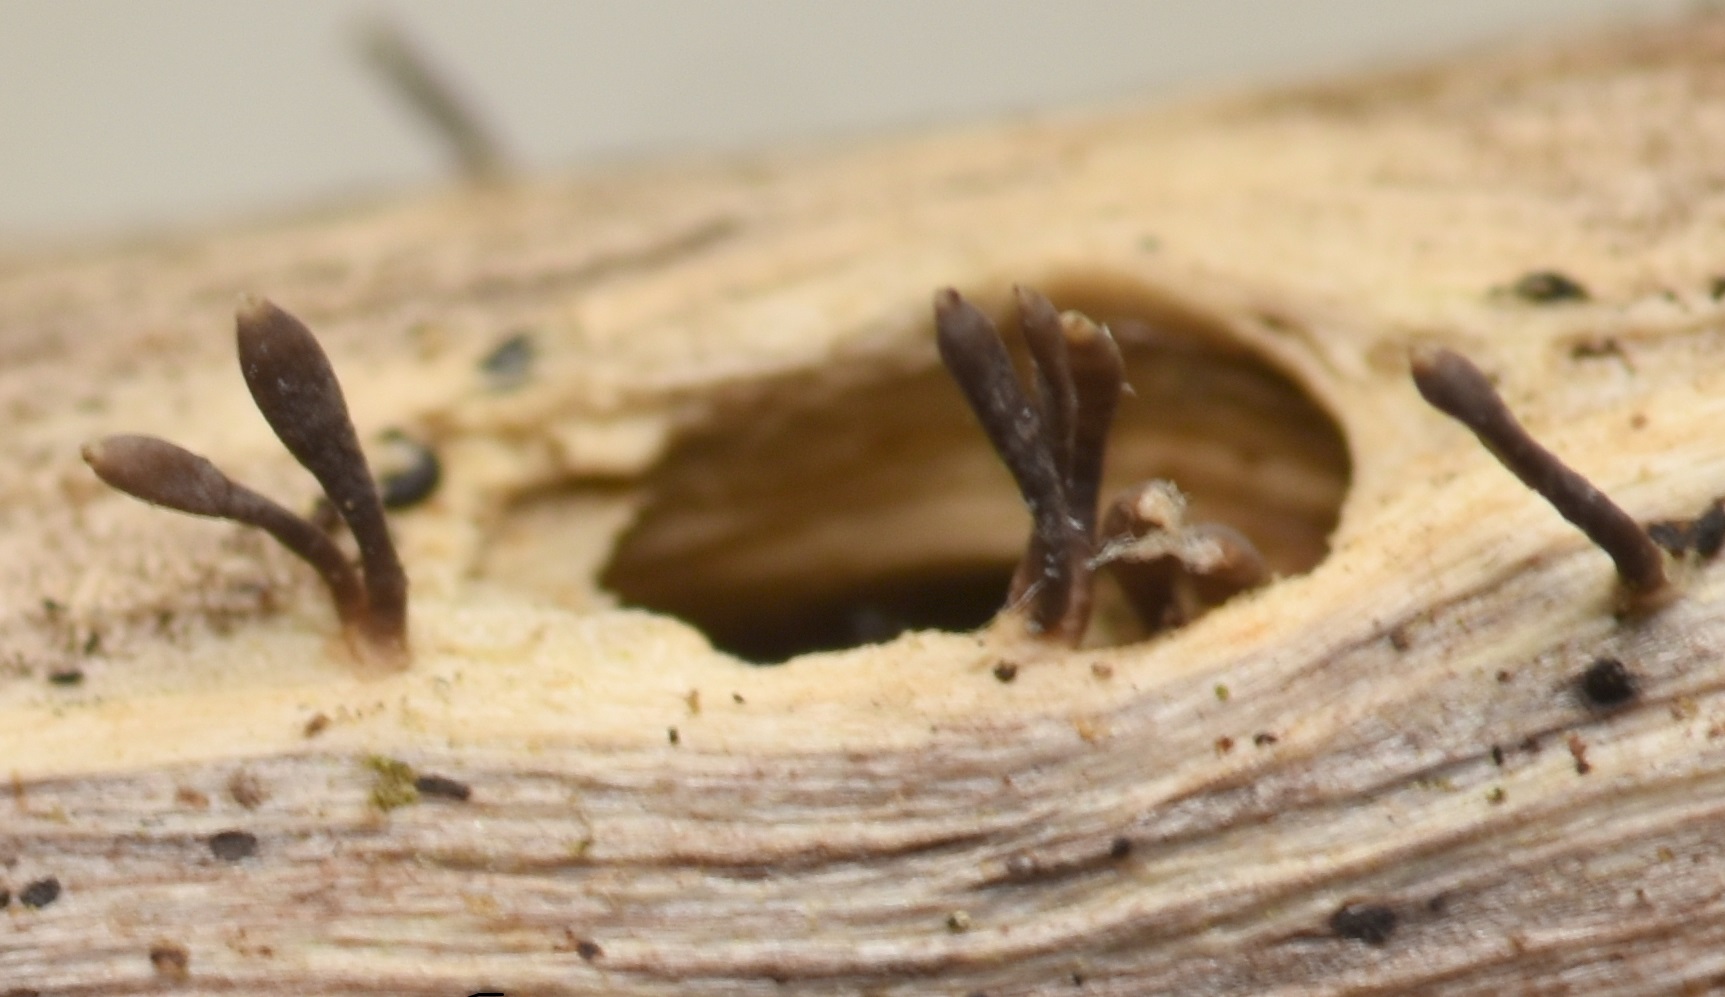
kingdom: Fungi
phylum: Ascomycota
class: Dothideomycetes
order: Acrospermales
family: Acrospermaceae
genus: Acrospermum
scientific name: Acrospermum compressum
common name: nælde-stængeltunge
